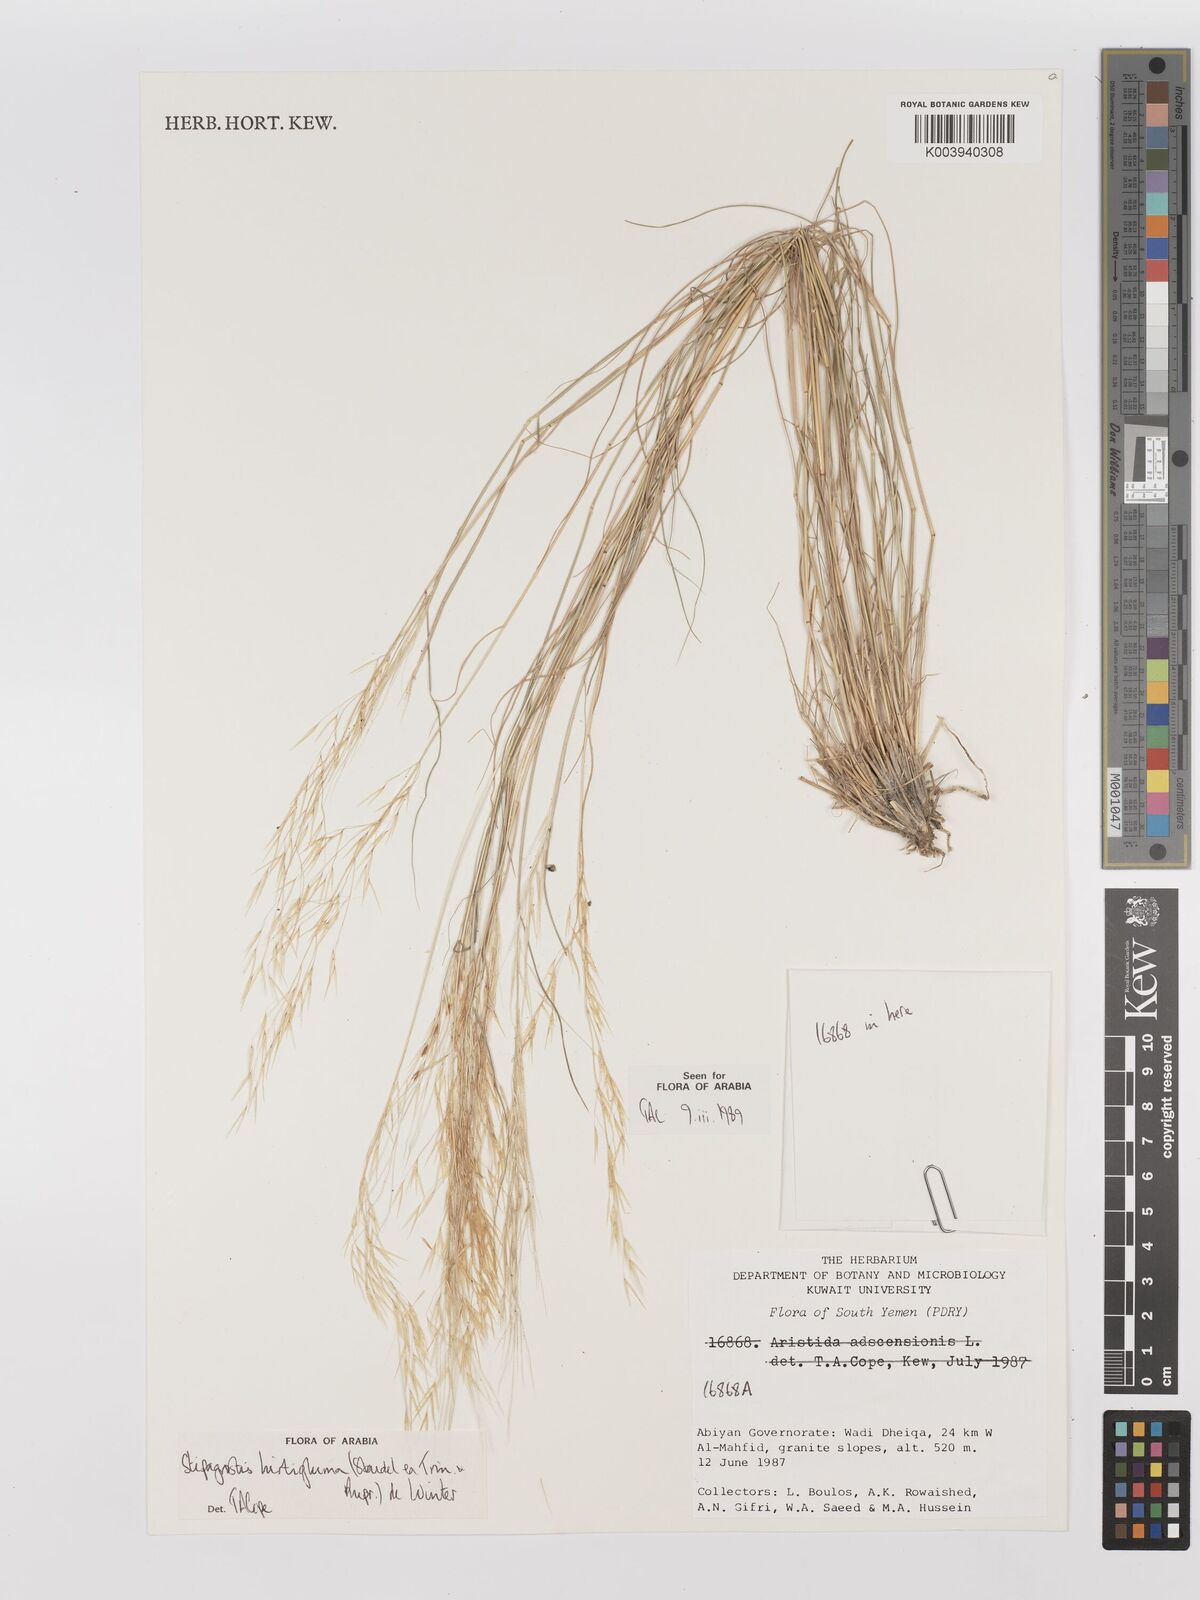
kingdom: Plantae
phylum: Tracheophyta
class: Liliopsida
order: Poales
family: Poaceae
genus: Stipagrostis
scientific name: Stipagrostis hirtigluma
